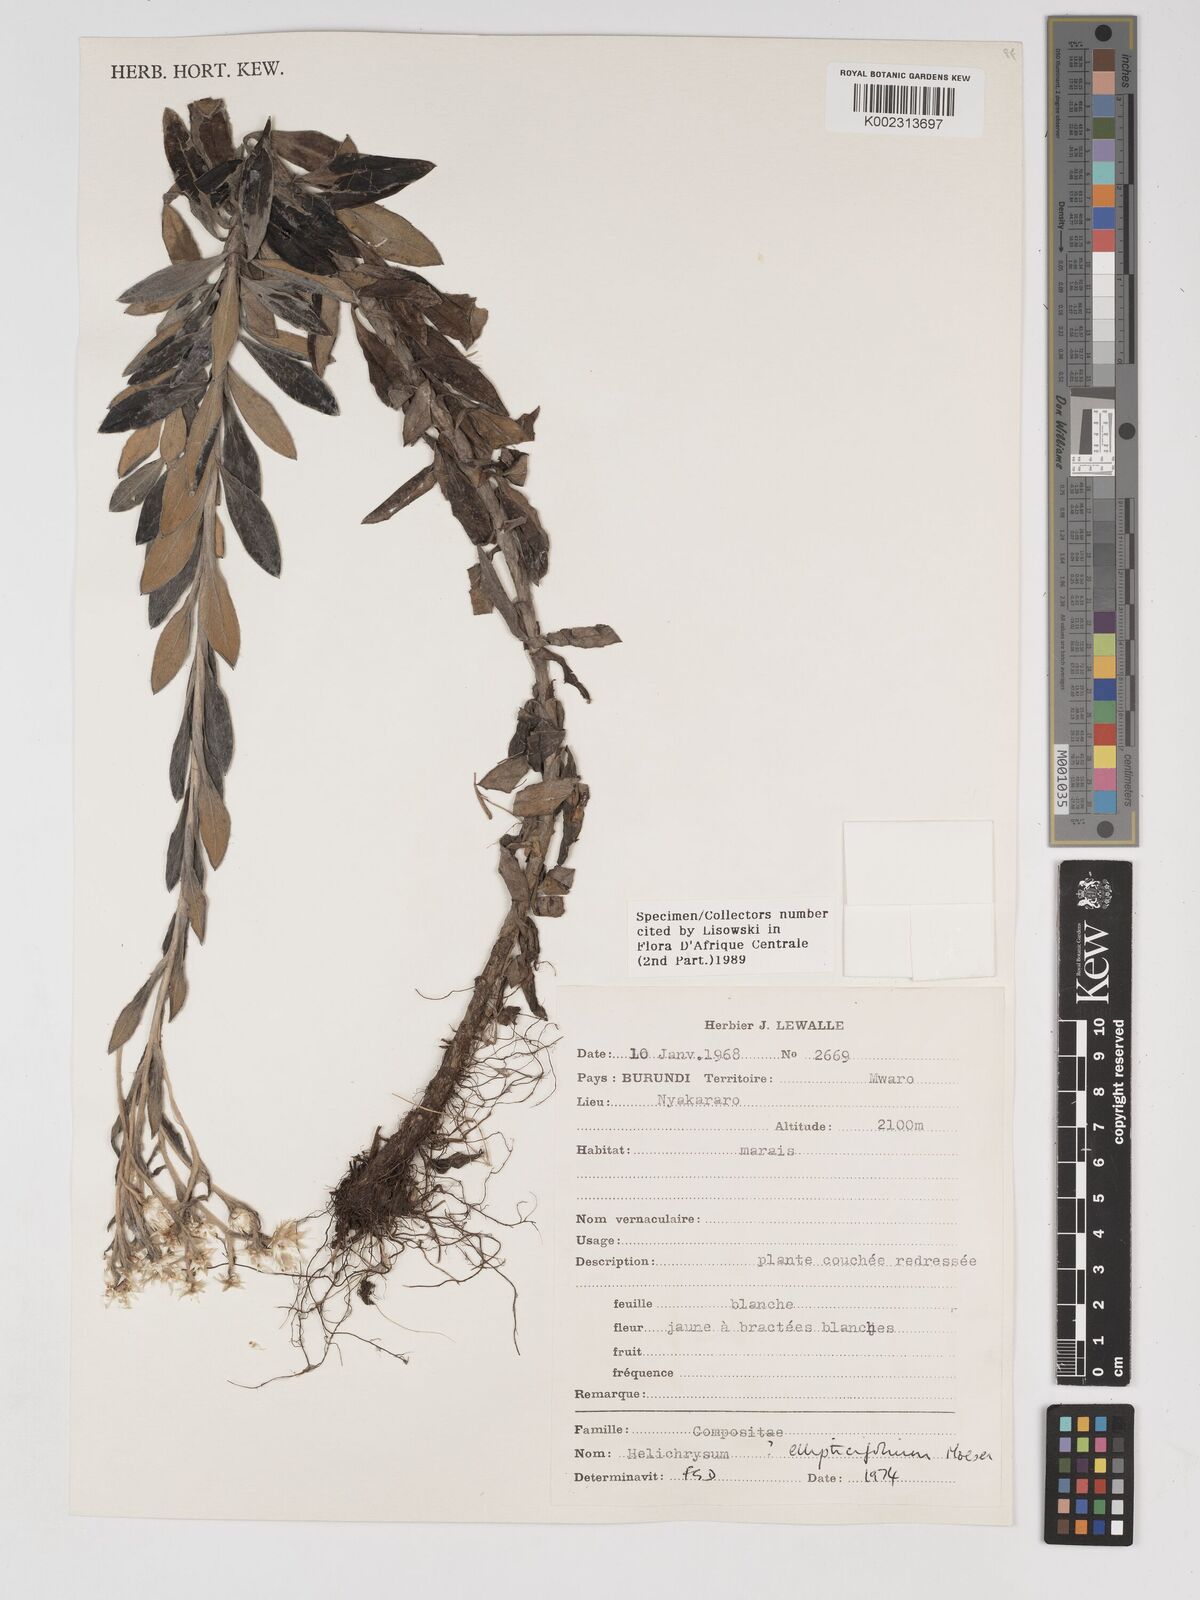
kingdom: Plantae
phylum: Tracheophyta
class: Magnoliopsida
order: Asterales
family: Asteraceae
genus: Helichrysum
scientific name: Helichrysum ellipticifolium
